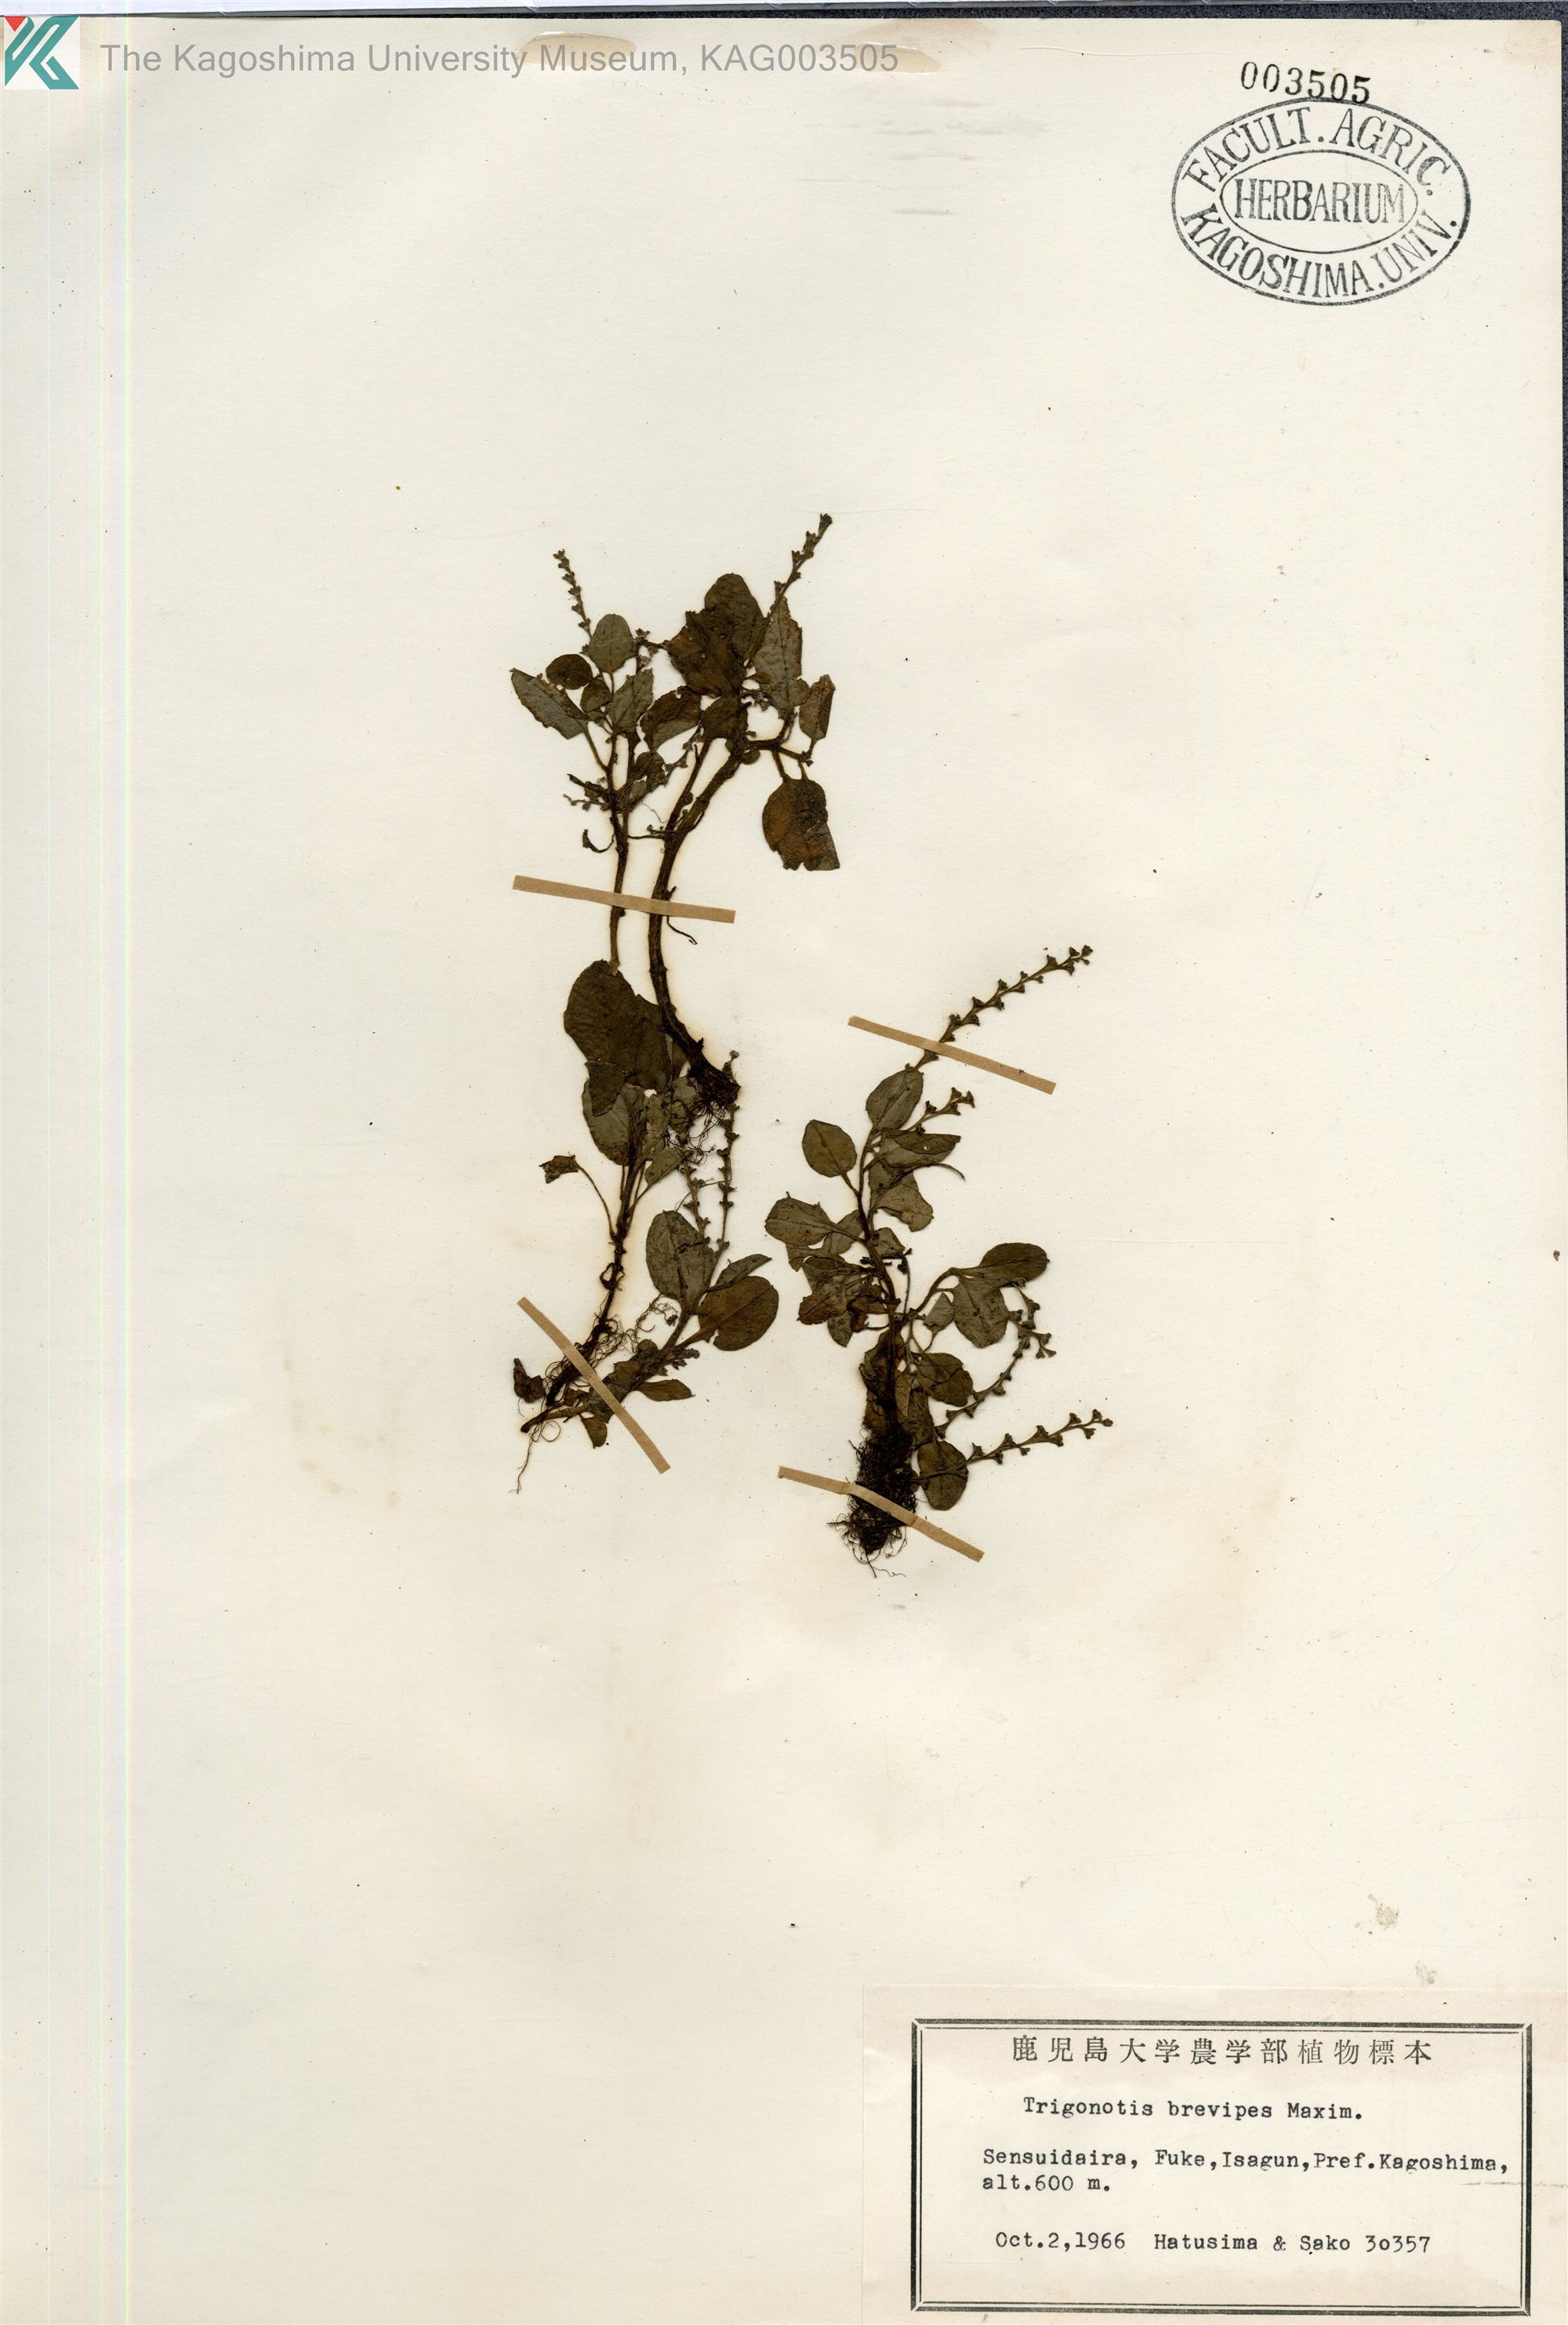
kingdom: Plantae
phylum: Tracheophyta
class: Magnoliopsida
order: Boraginales
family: Boraginaceae
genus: Trigonotis
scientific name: Trigonotis brevipes
